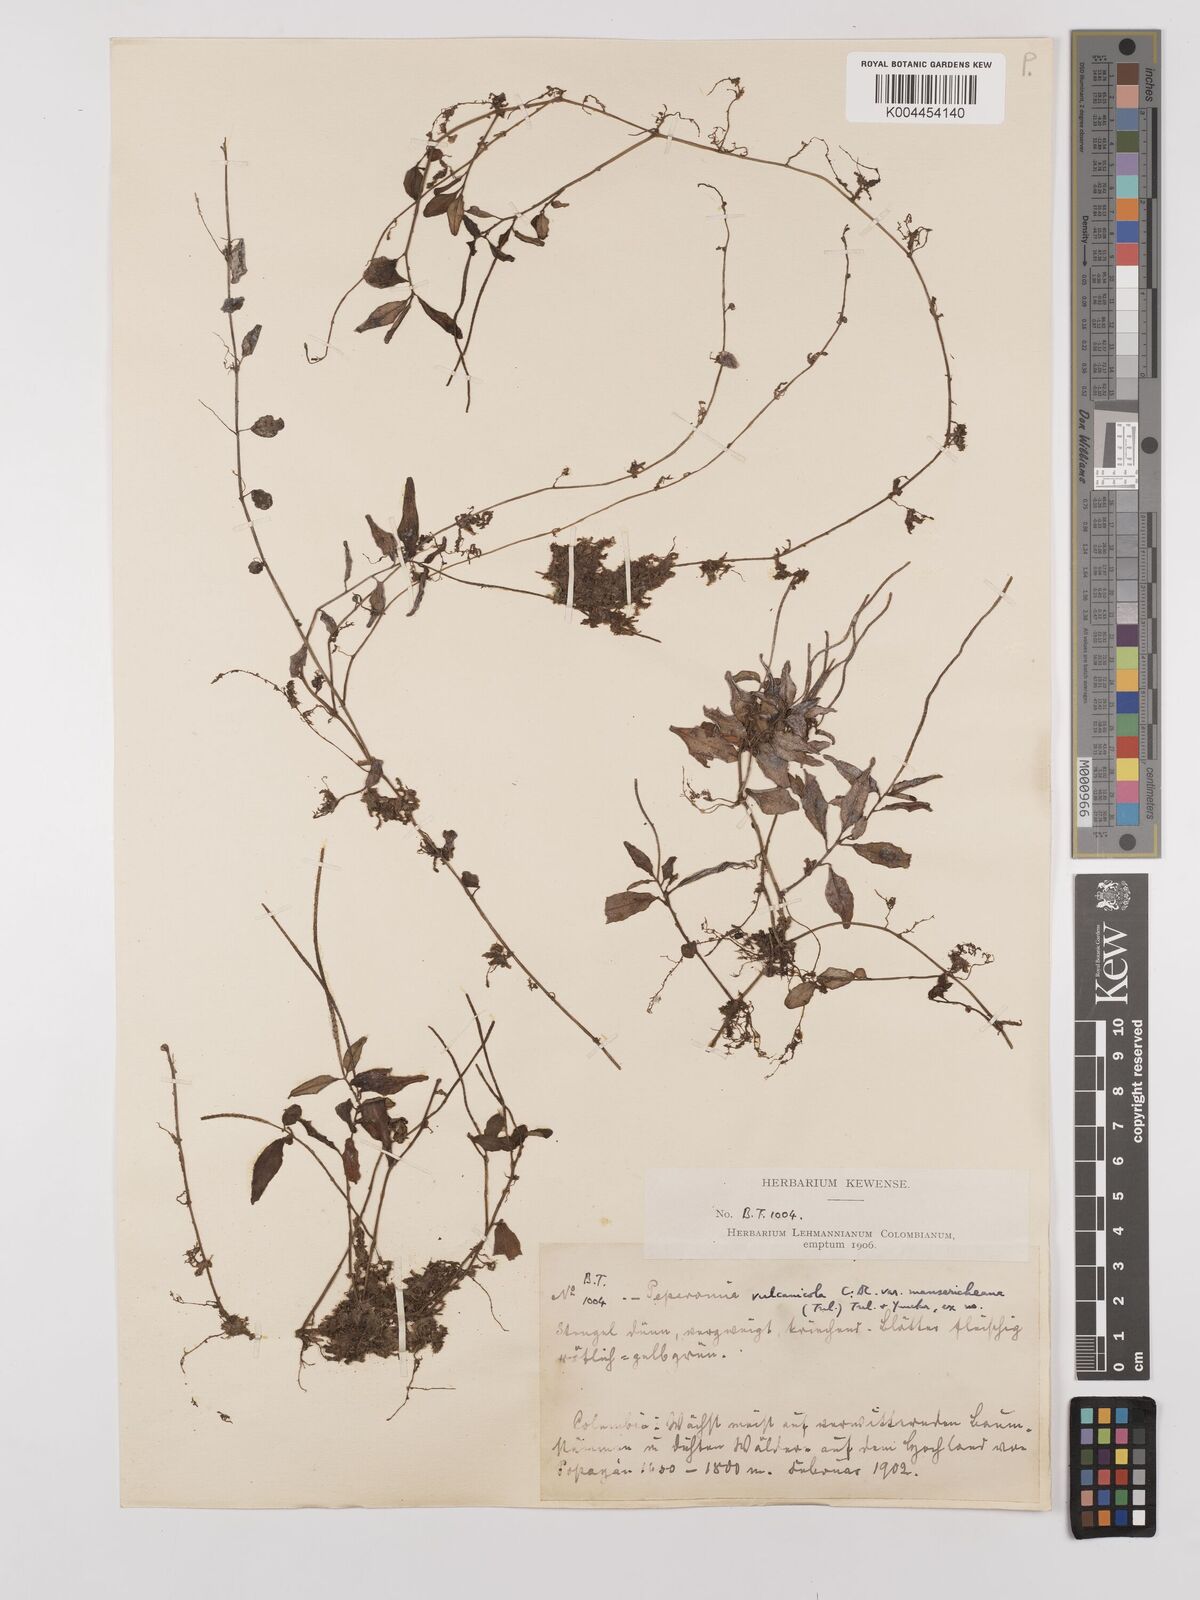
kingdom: Plantae
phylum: Tracheophyta
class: Magnoliopsida
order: Piperales
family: Piperaceae
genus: Peperomia
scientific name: Peperomia heterophylla
